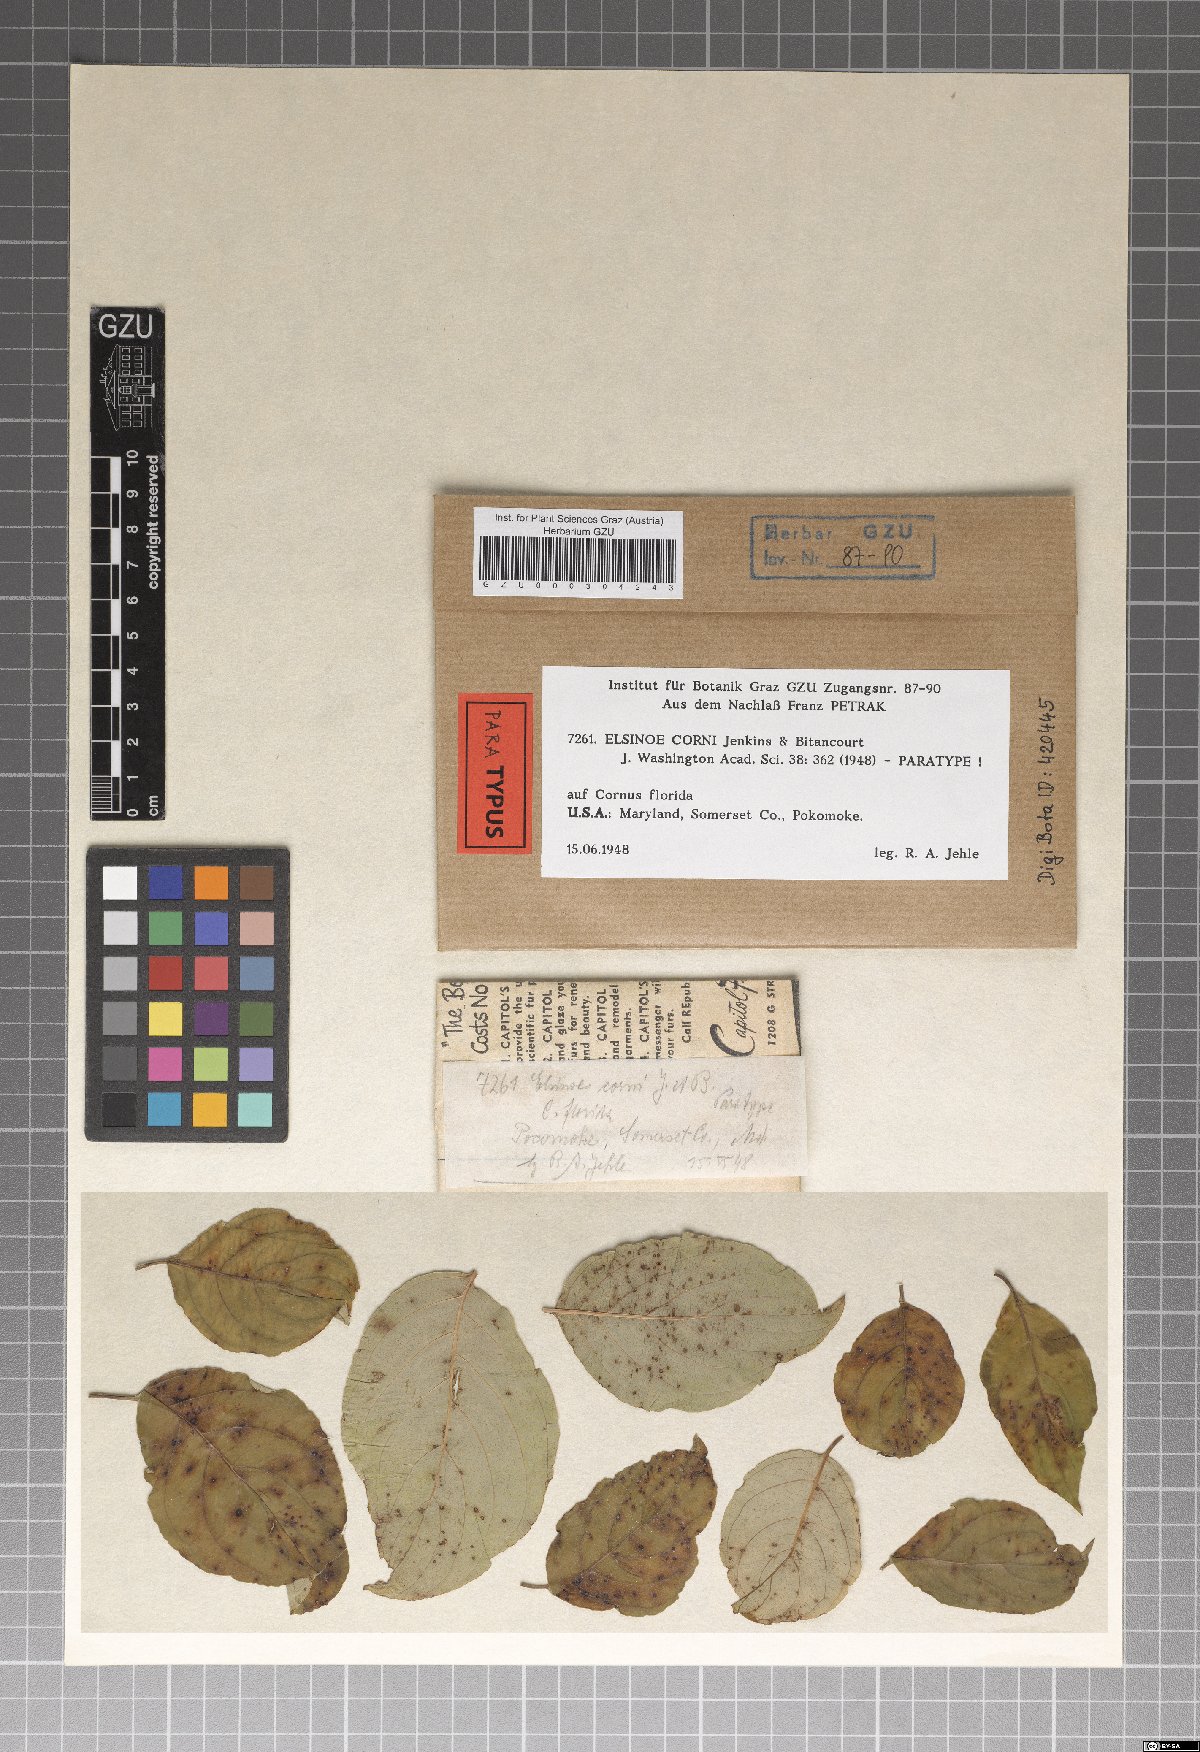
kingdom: Fungi
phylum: Ascomycota
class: Dothideomycetes
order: Myriangiales
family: Elsinoaceae
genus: Elsinoe
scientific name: Elsinoe corni
